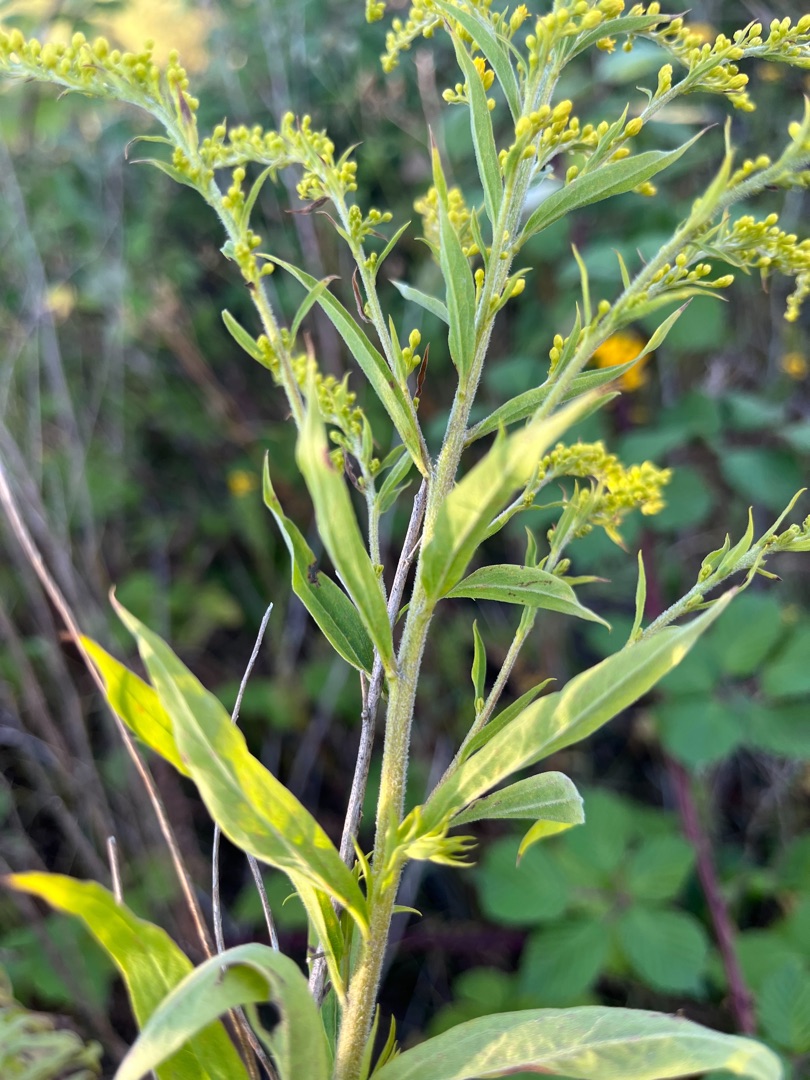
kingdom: Plantae
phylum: Tracheophyta
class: Magnoliopsida
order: Asterales
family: Asteraceae
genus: Solidago
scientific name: Solidago canadensis
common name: Kanadisk gyldenris
